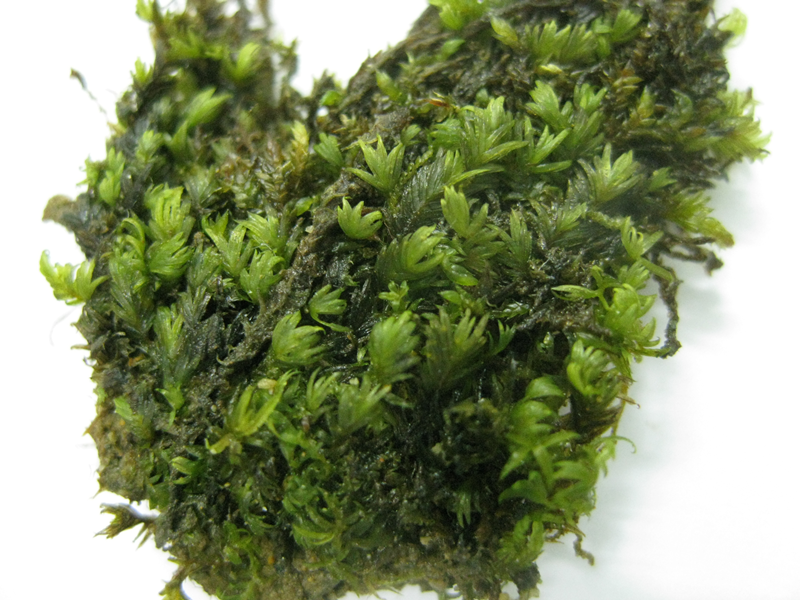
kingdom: Plantae
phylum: Bryophyta
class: Bryopsida
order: Hypnales
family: Hypnaceae
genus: Ectropothecium
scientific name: Ectropothecium
